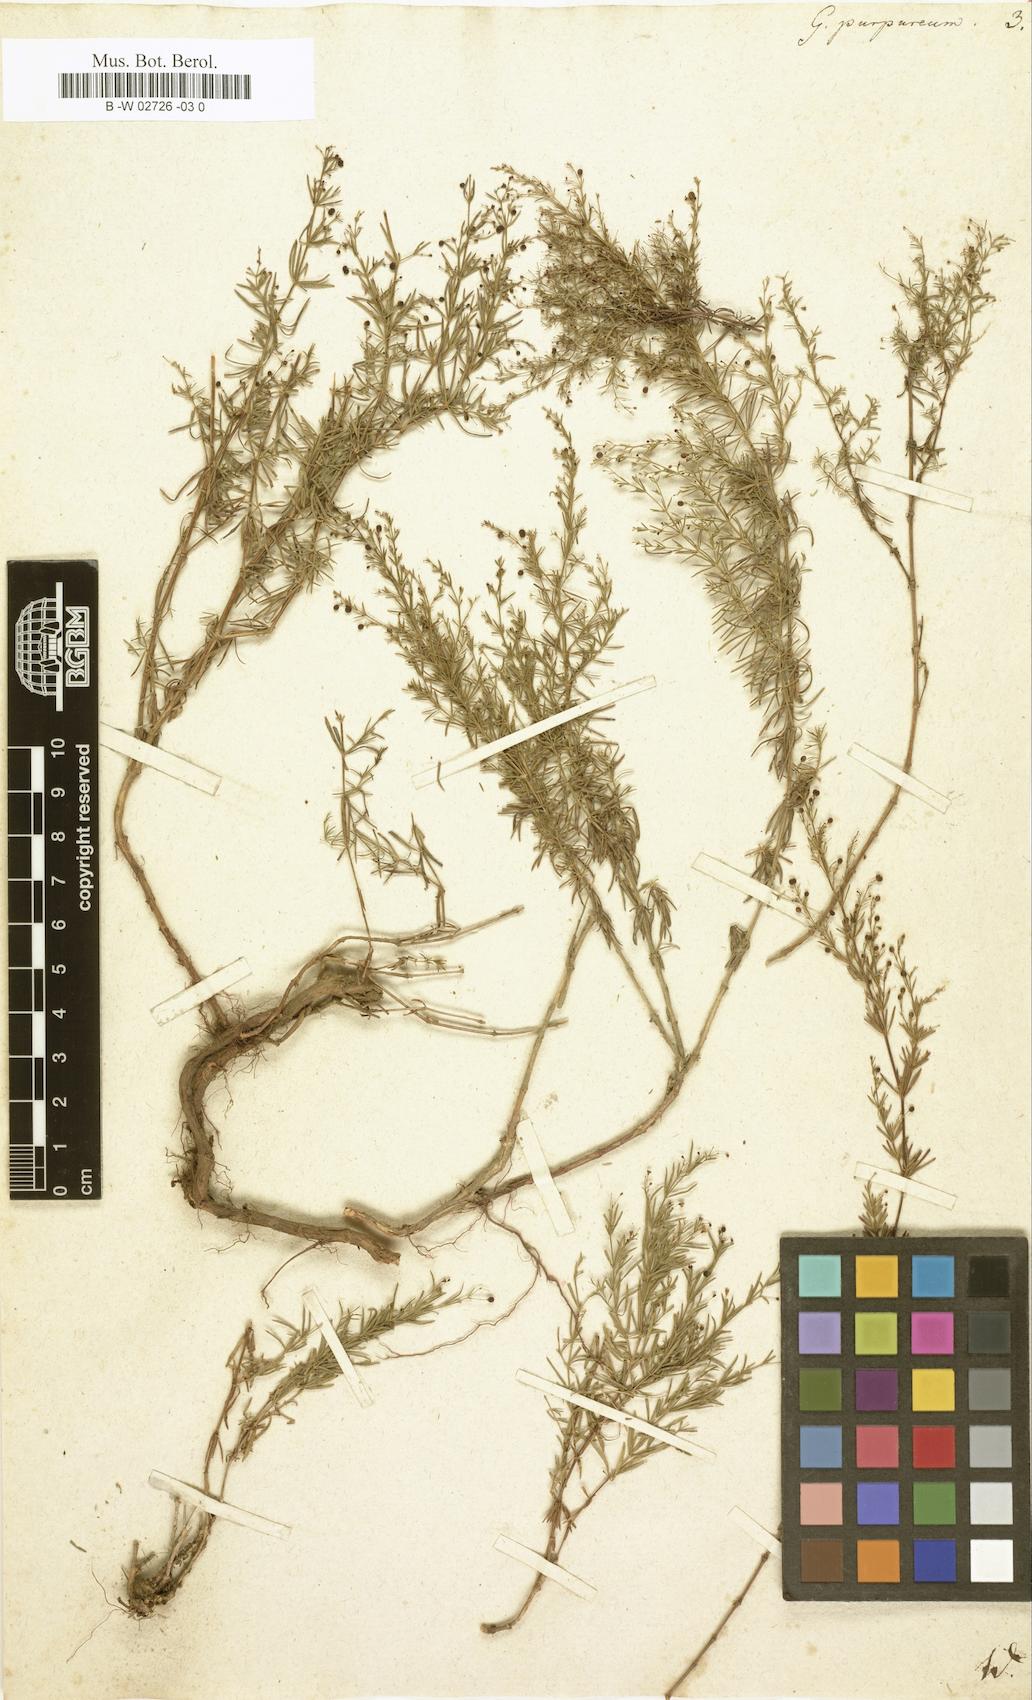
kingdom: Plantae
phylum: Tracheophyta
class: Magnoliopsida
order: Gentianales
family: Rubiaceae
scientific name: Rubiaceae
